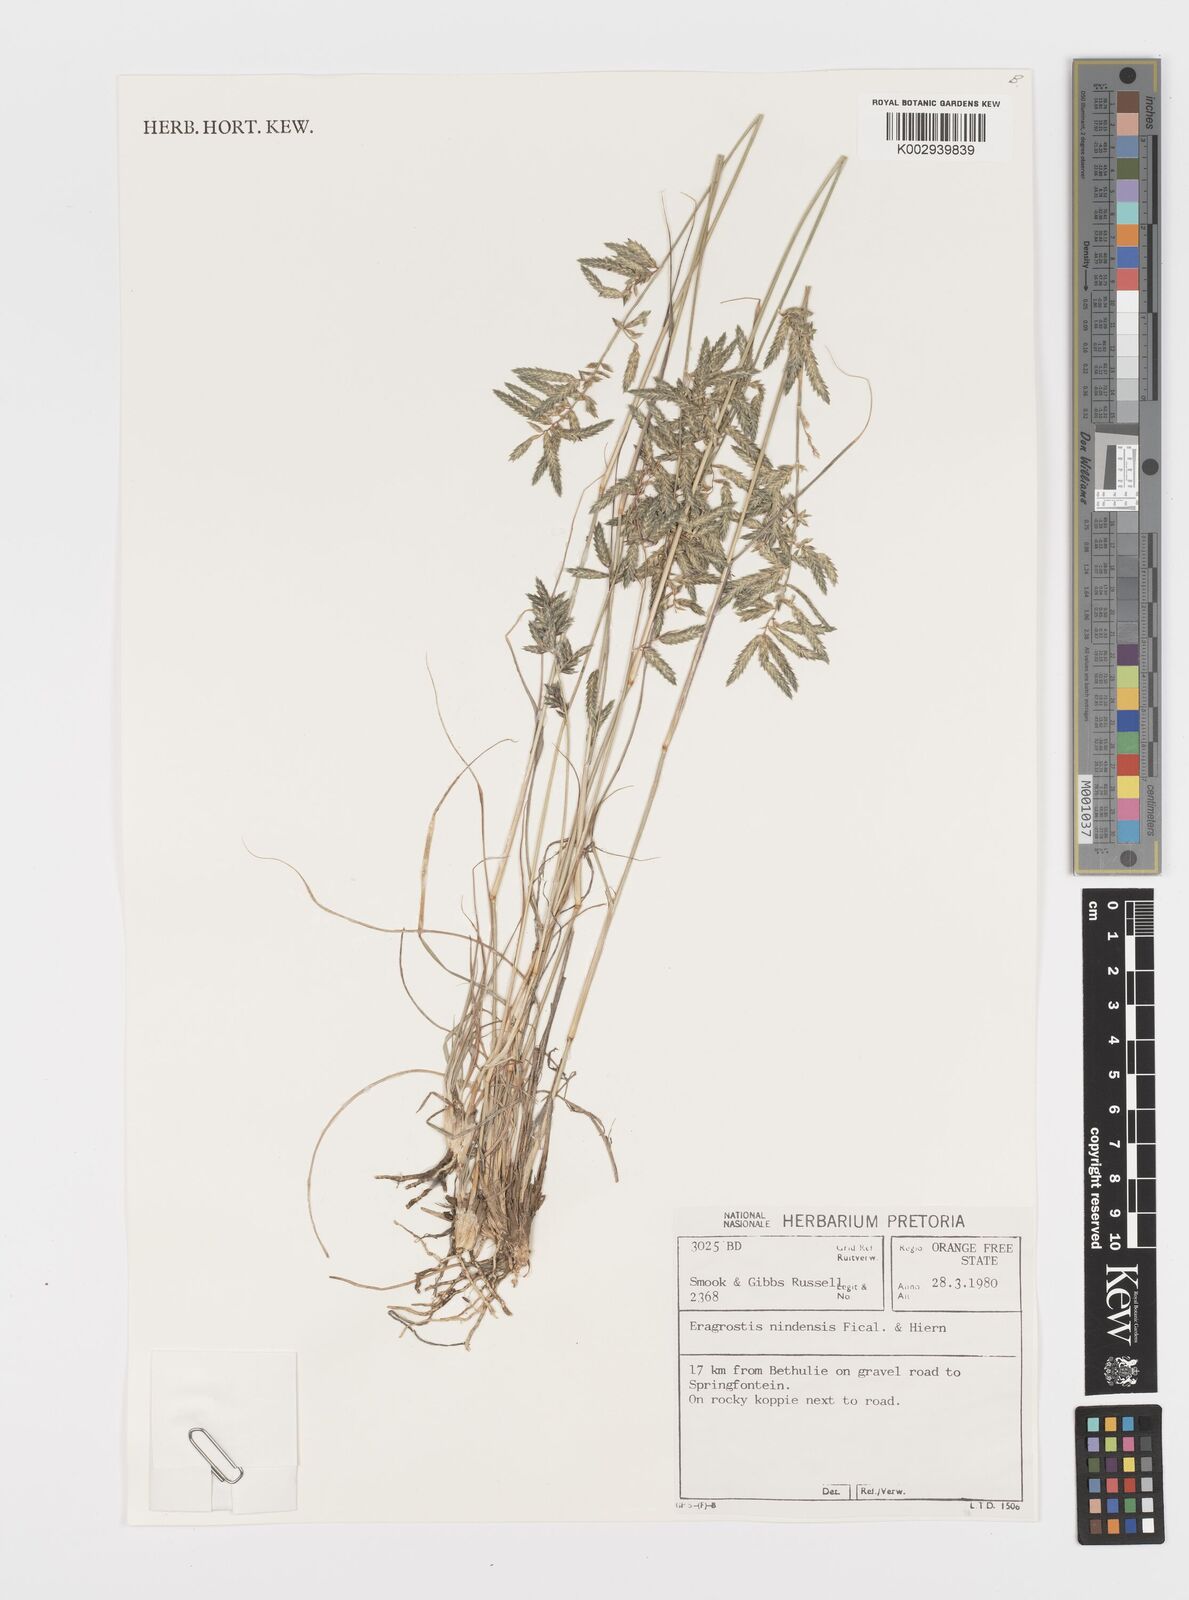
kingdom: Plantae
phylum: Tracheophyta
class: Liliopsida
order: Poales
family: Poaceae
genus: Eragrostis
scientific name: Eragrostis nindensis
